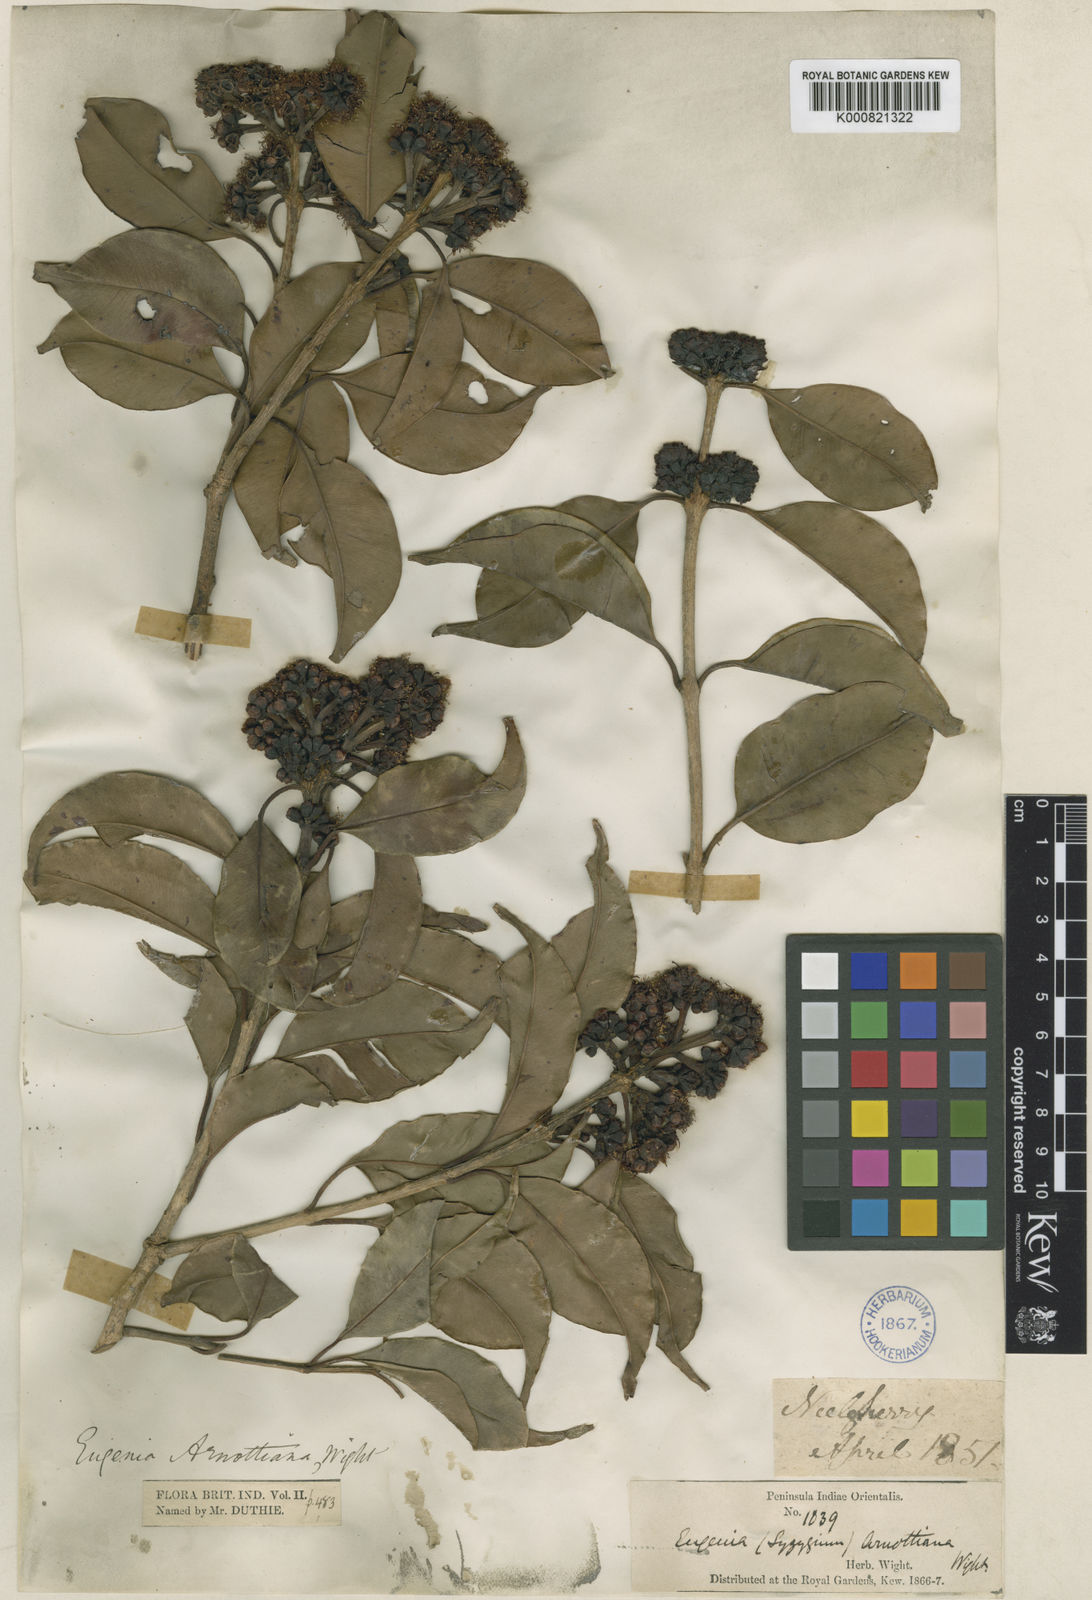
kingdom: Plantae
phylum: Tracheophyta
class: Magnoliopsida
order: Myrtales
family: Myrtaceae
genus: Syzygium
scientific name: Syzygium densiflorum
